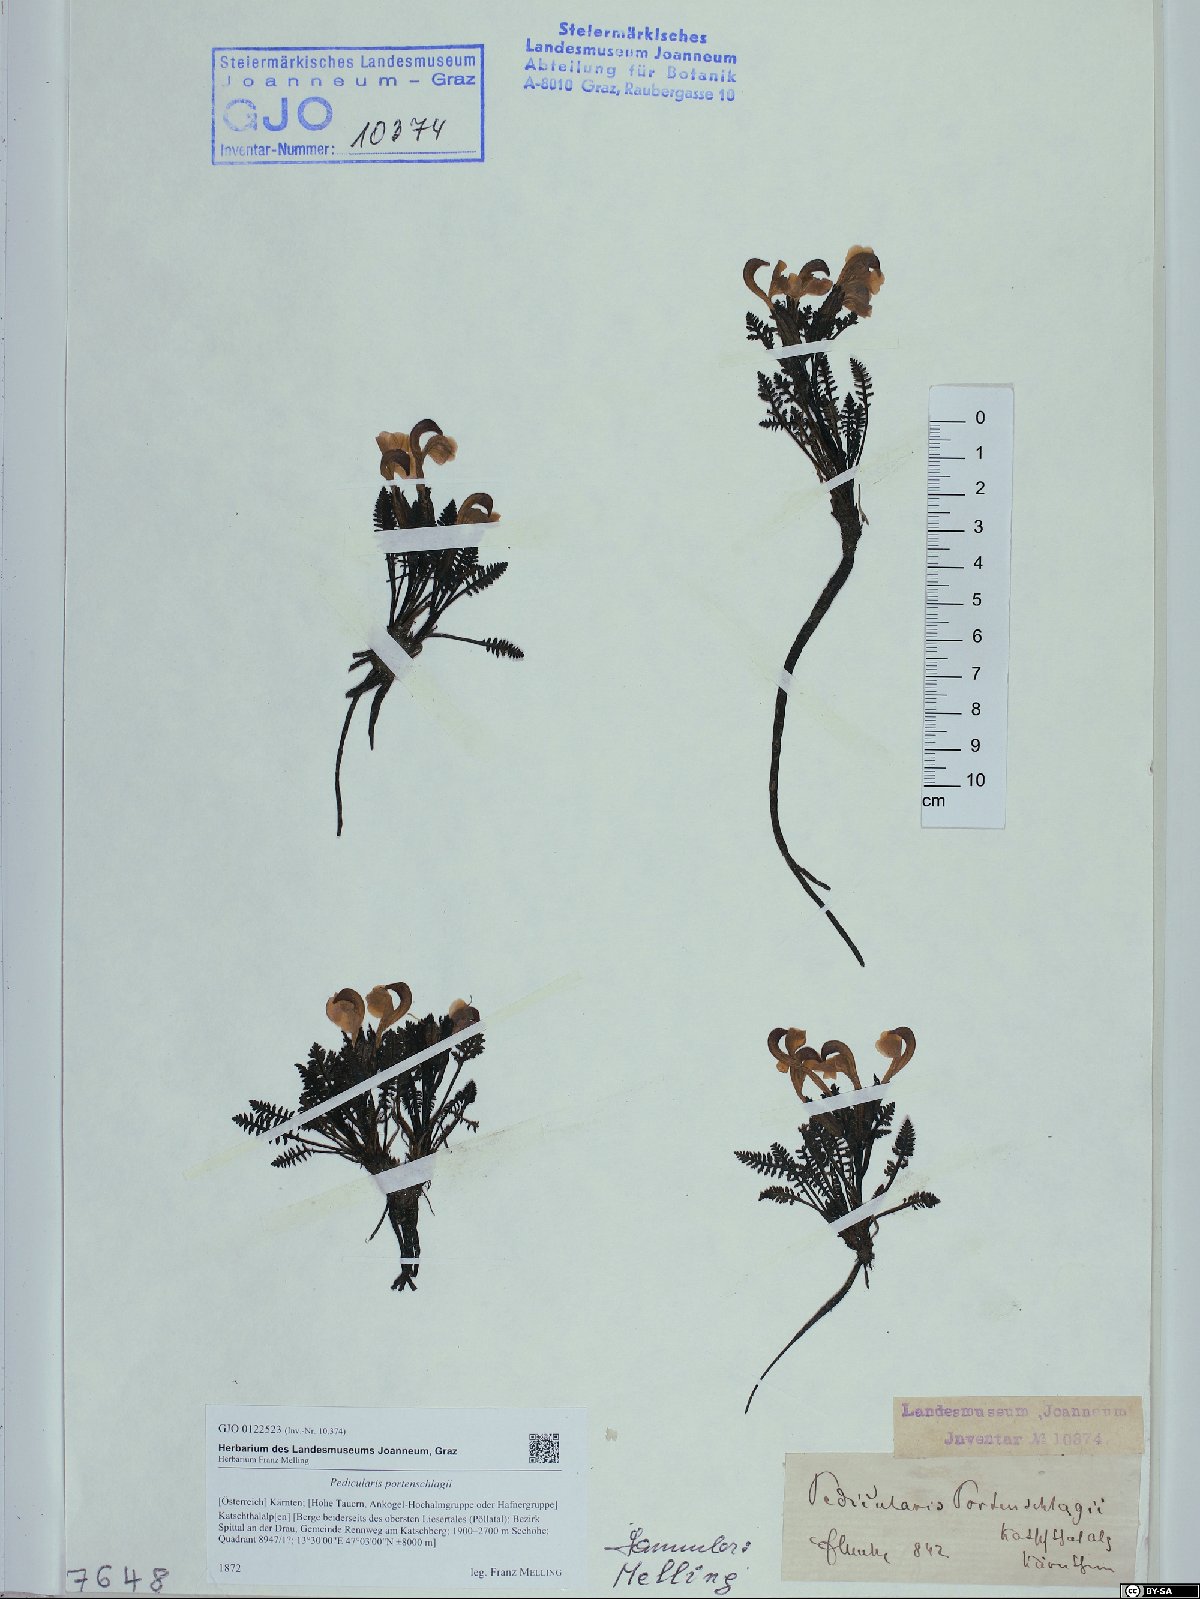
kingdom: Plantae
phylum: Tracheophyta
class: Magnoliopsida
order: Lamiales
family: Orobanchaceae
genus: Pedicularis
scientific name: Pedicularis portenschlagii
